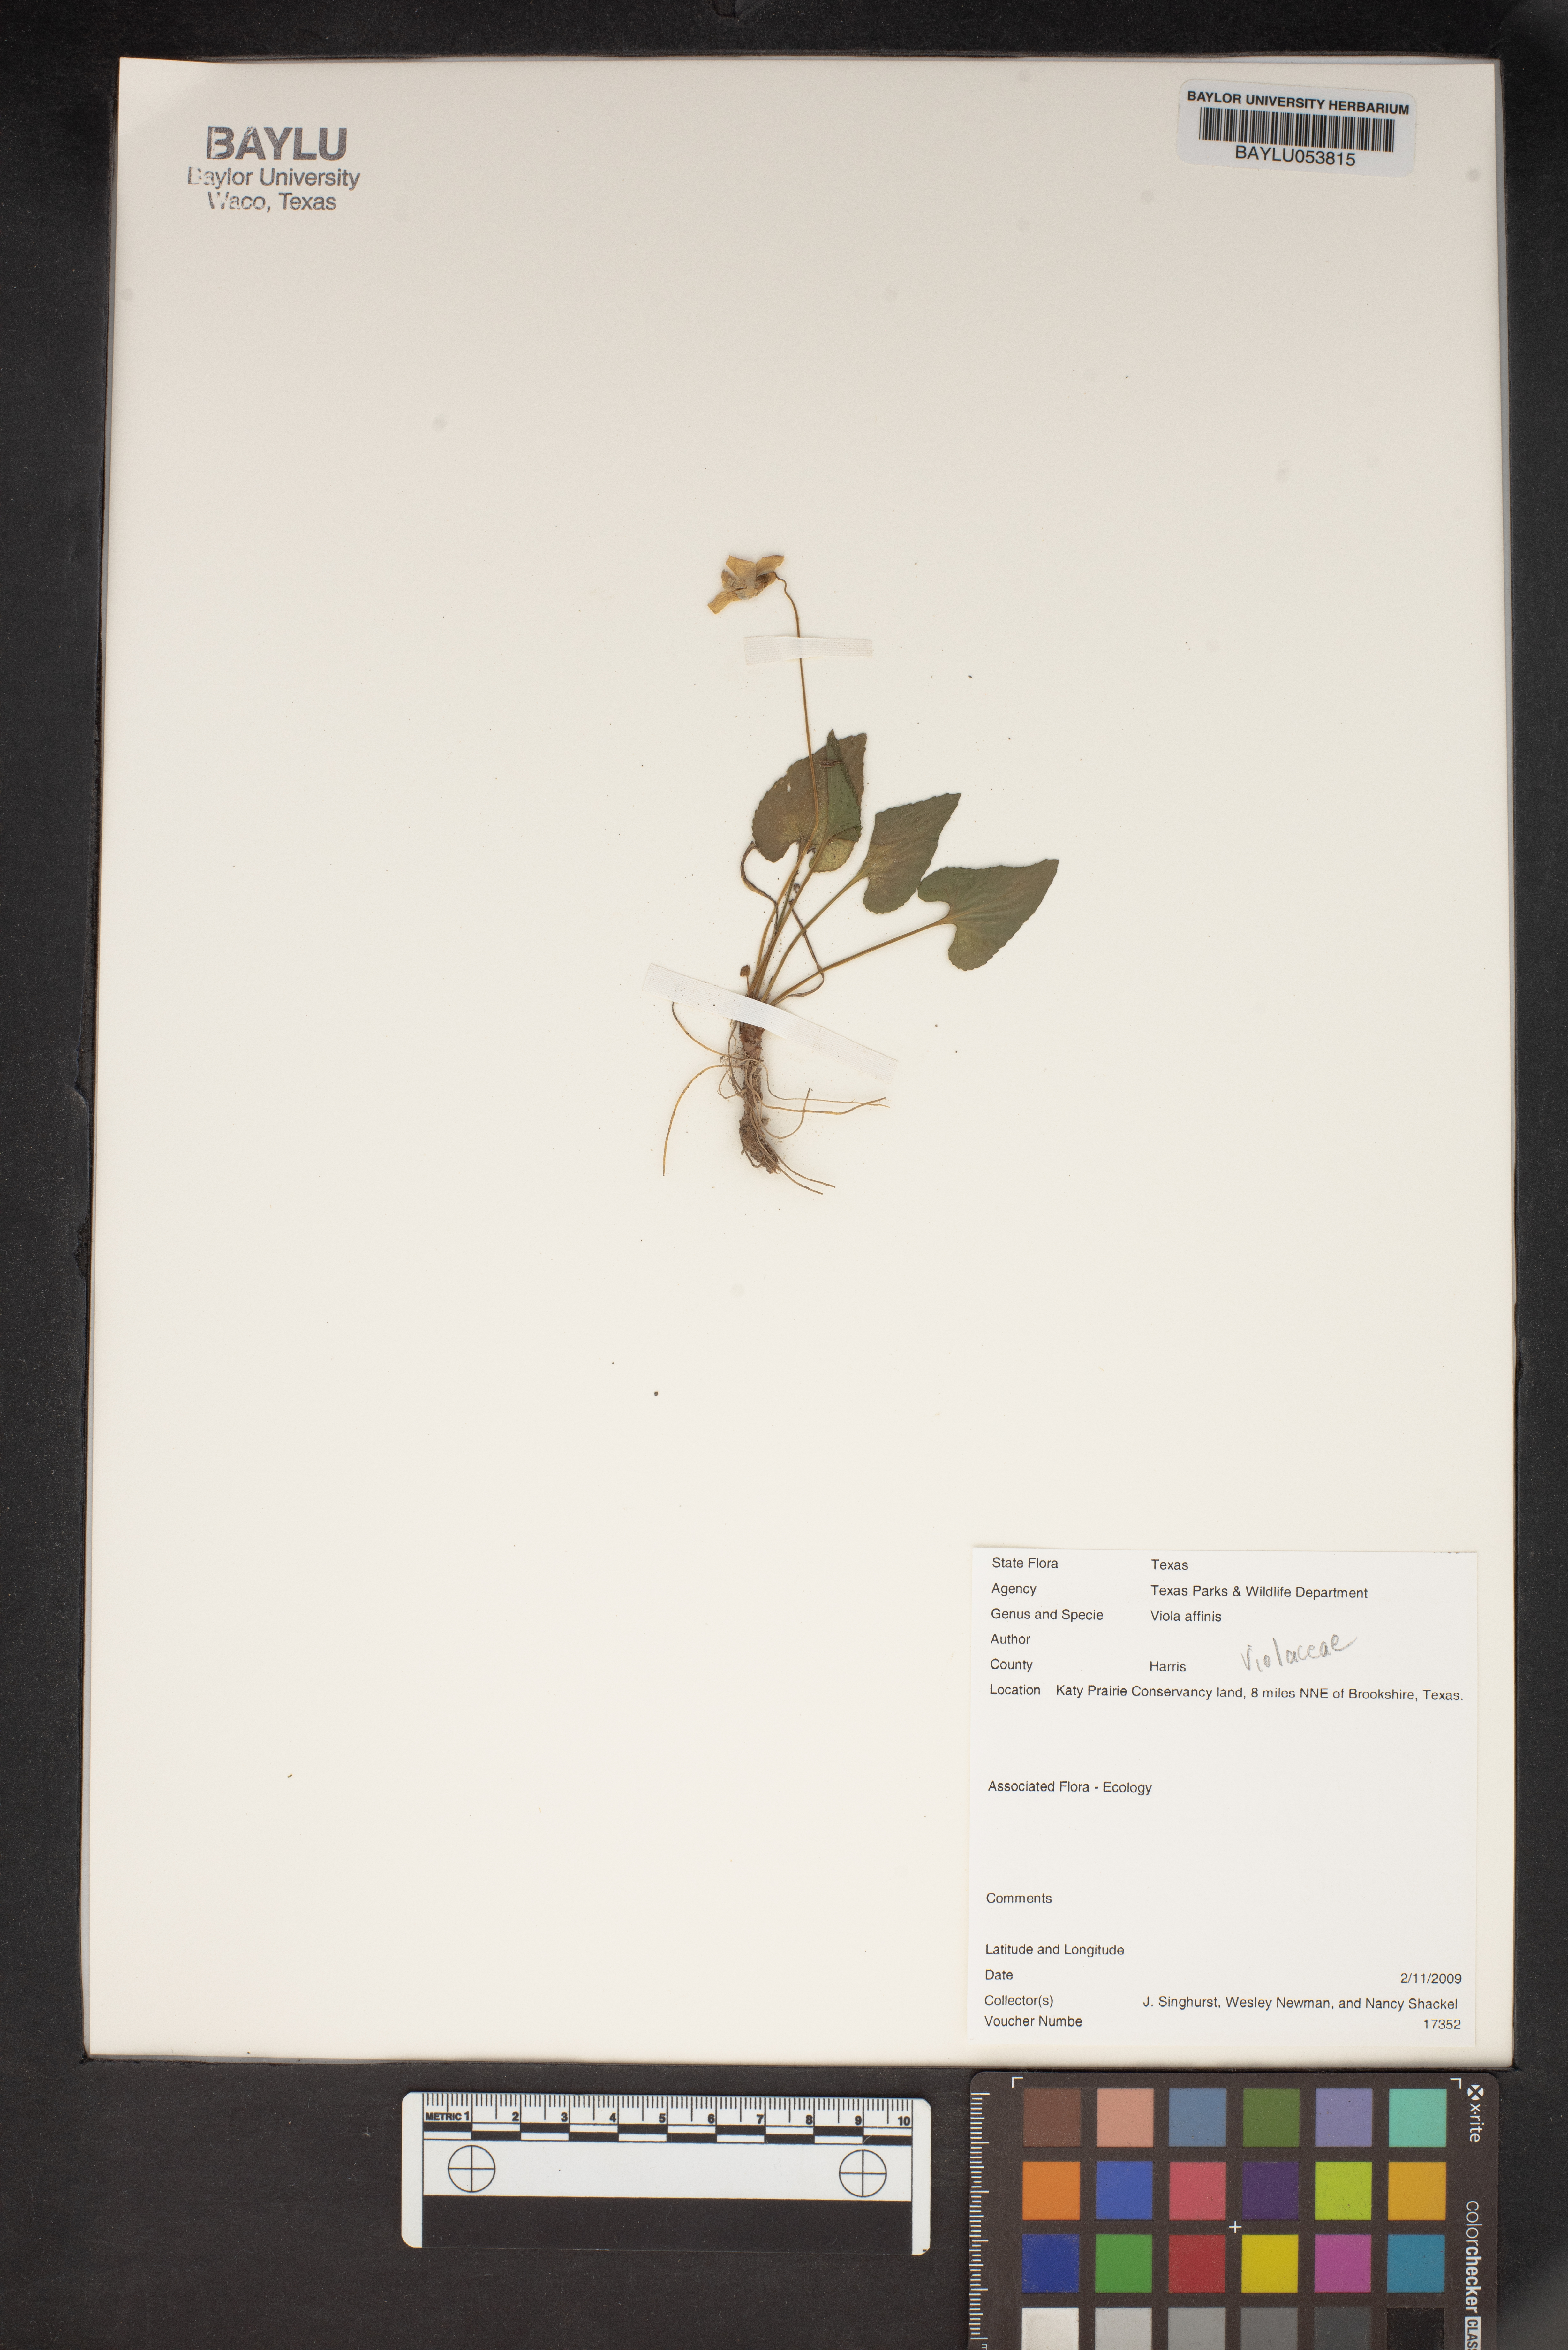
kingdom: Plantae
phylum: Tracheophyta
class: Magnoliopsida
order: Malpighiales
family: Violaceae
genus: Viola
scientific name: Viola affinis
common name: Leconte's violet
